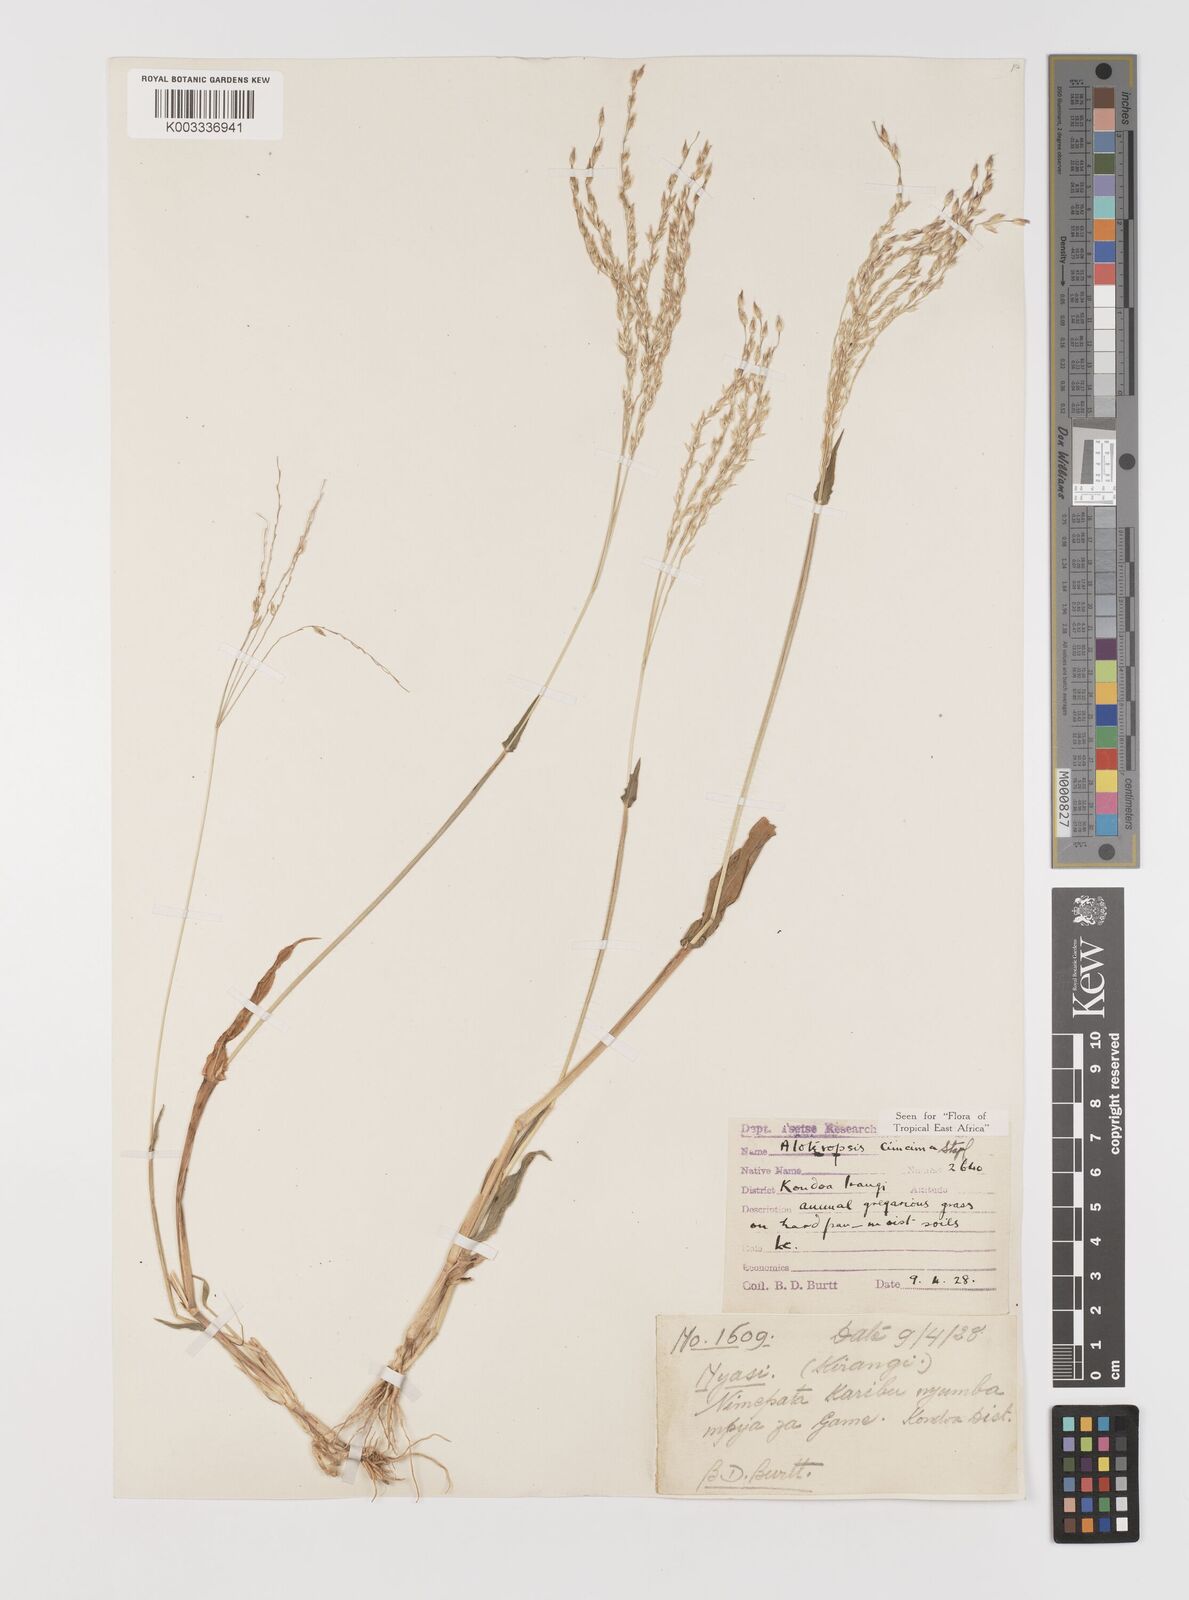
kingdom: Plantae
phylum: Tracheophyta
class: Liliopsida
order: Poales
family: Poaceae
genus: Alloteropsis
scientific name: Alloteropsis cimicina
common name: Summergrass
